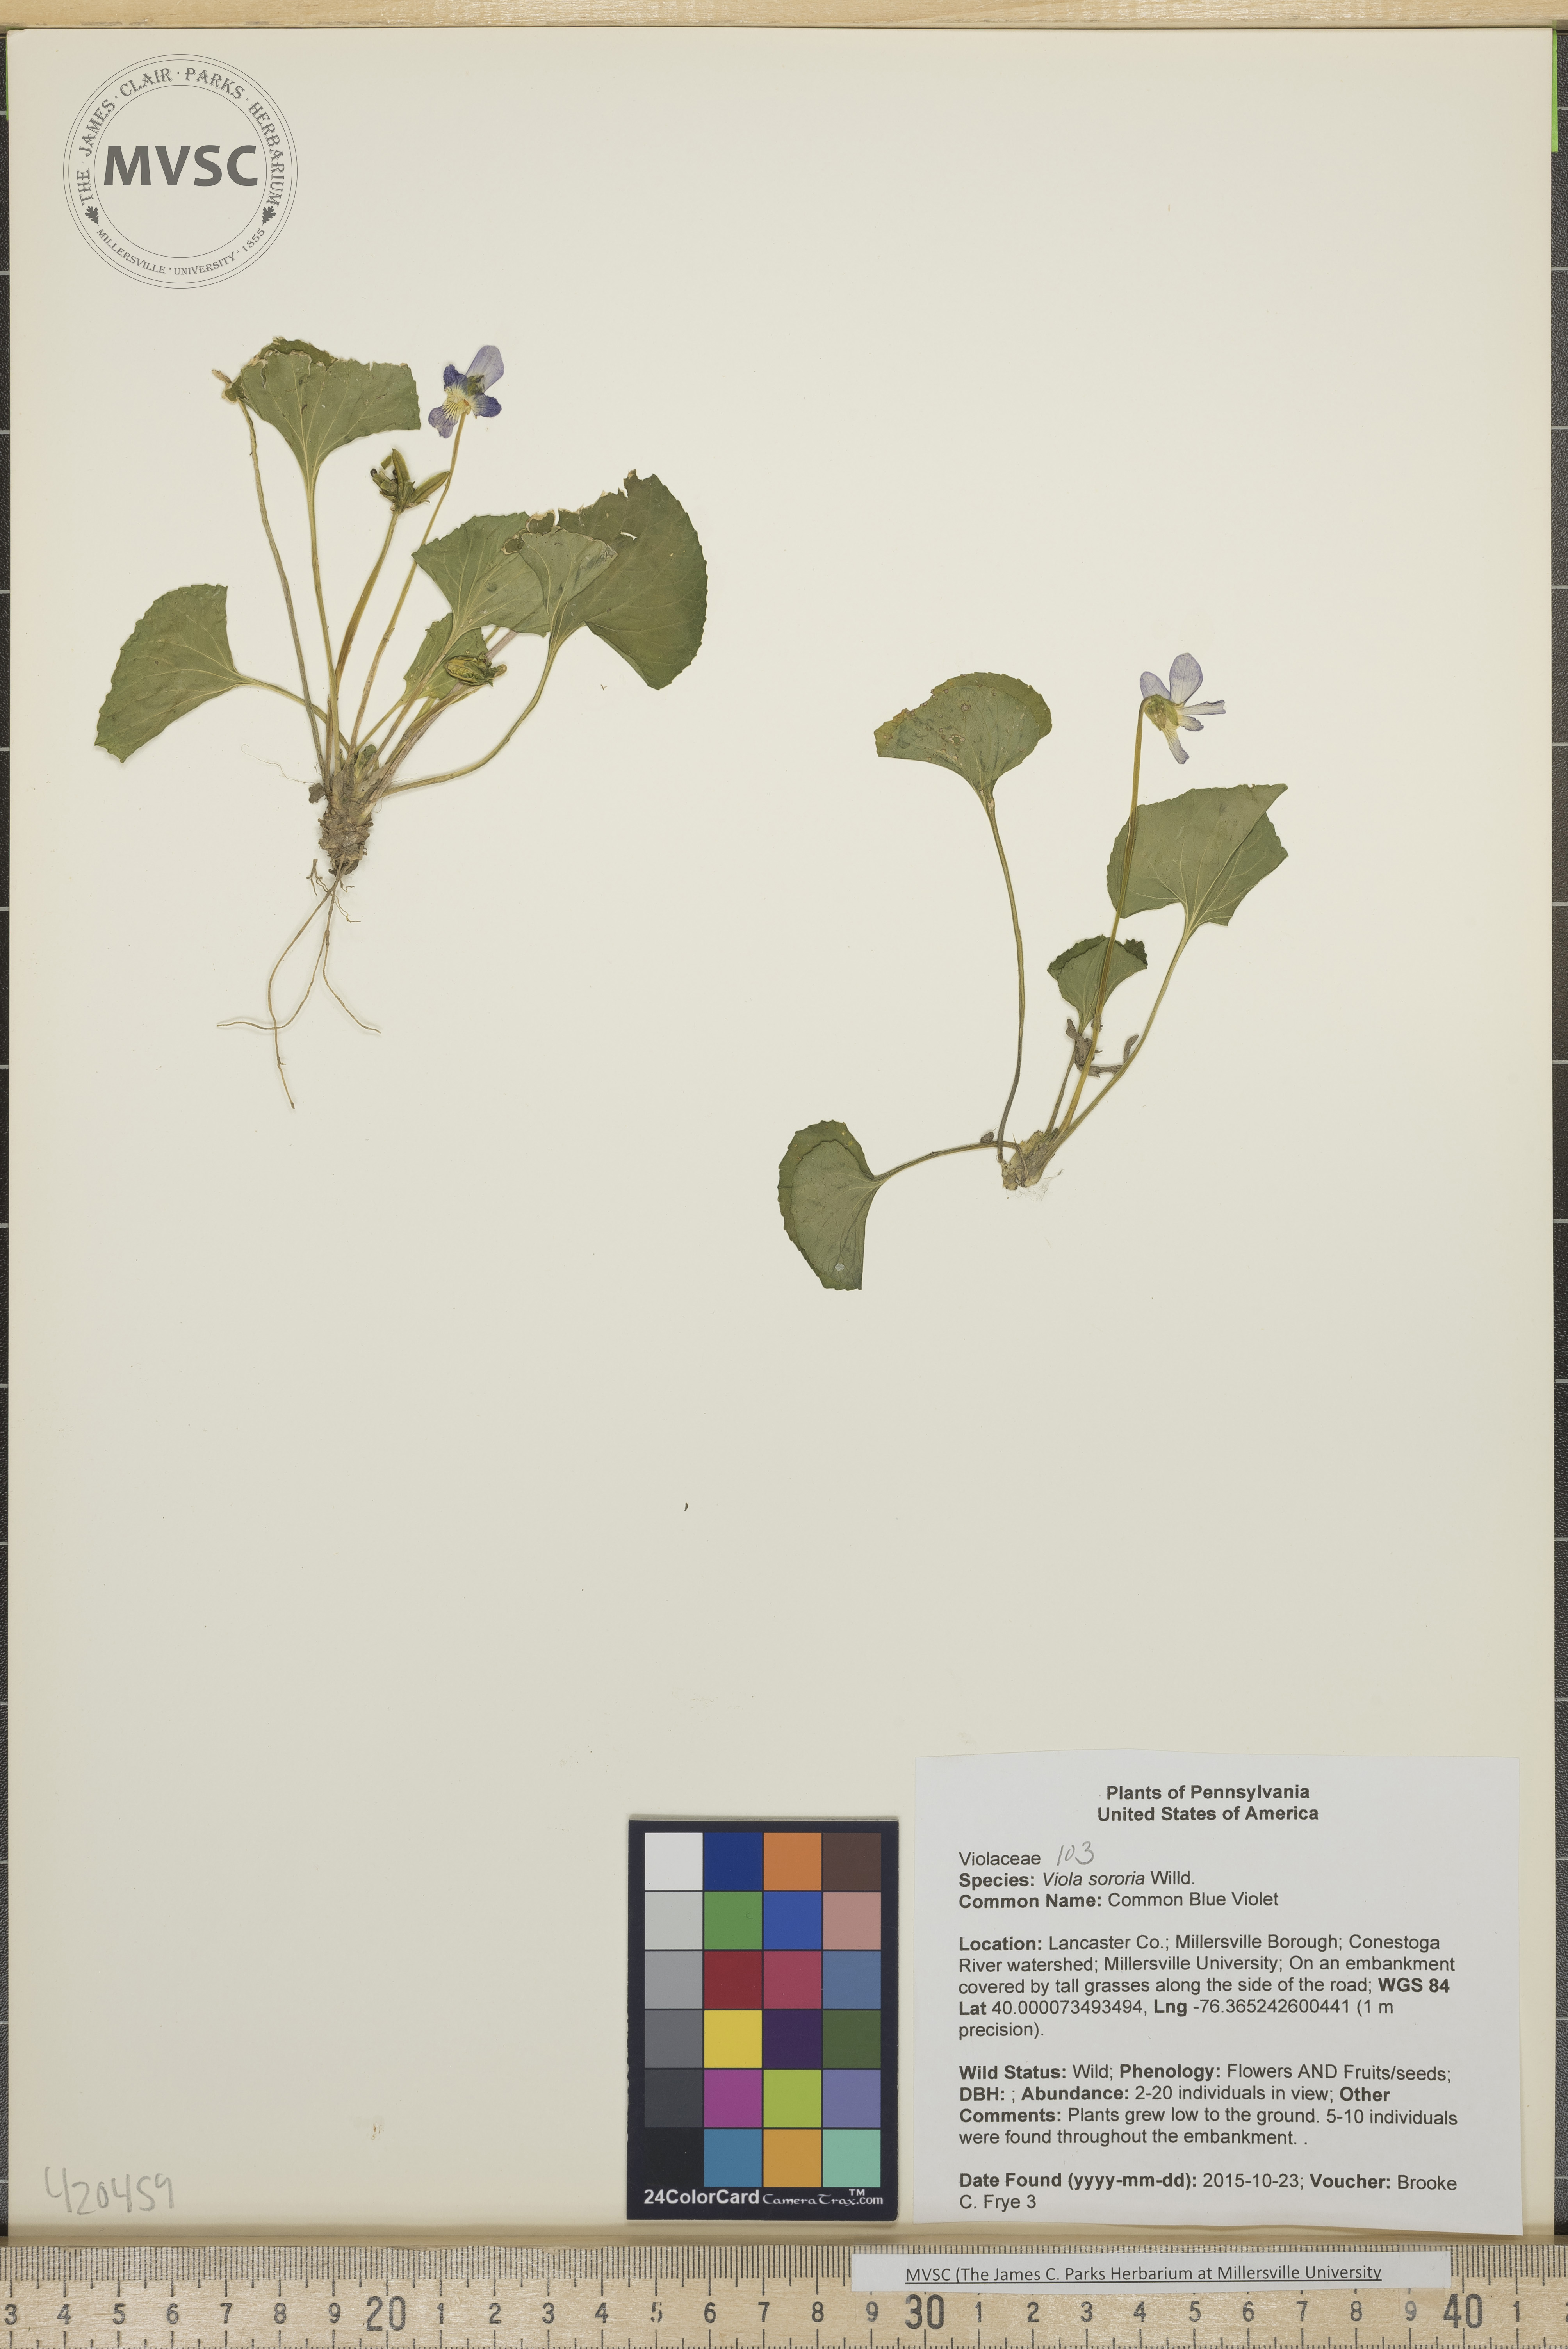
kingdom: Plantae
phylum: Tracheophyta
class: Magnoliopsida
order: Malpighiales
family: Violaceae
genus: Viola
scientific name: Viola sororia
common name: Common Blue Violet
